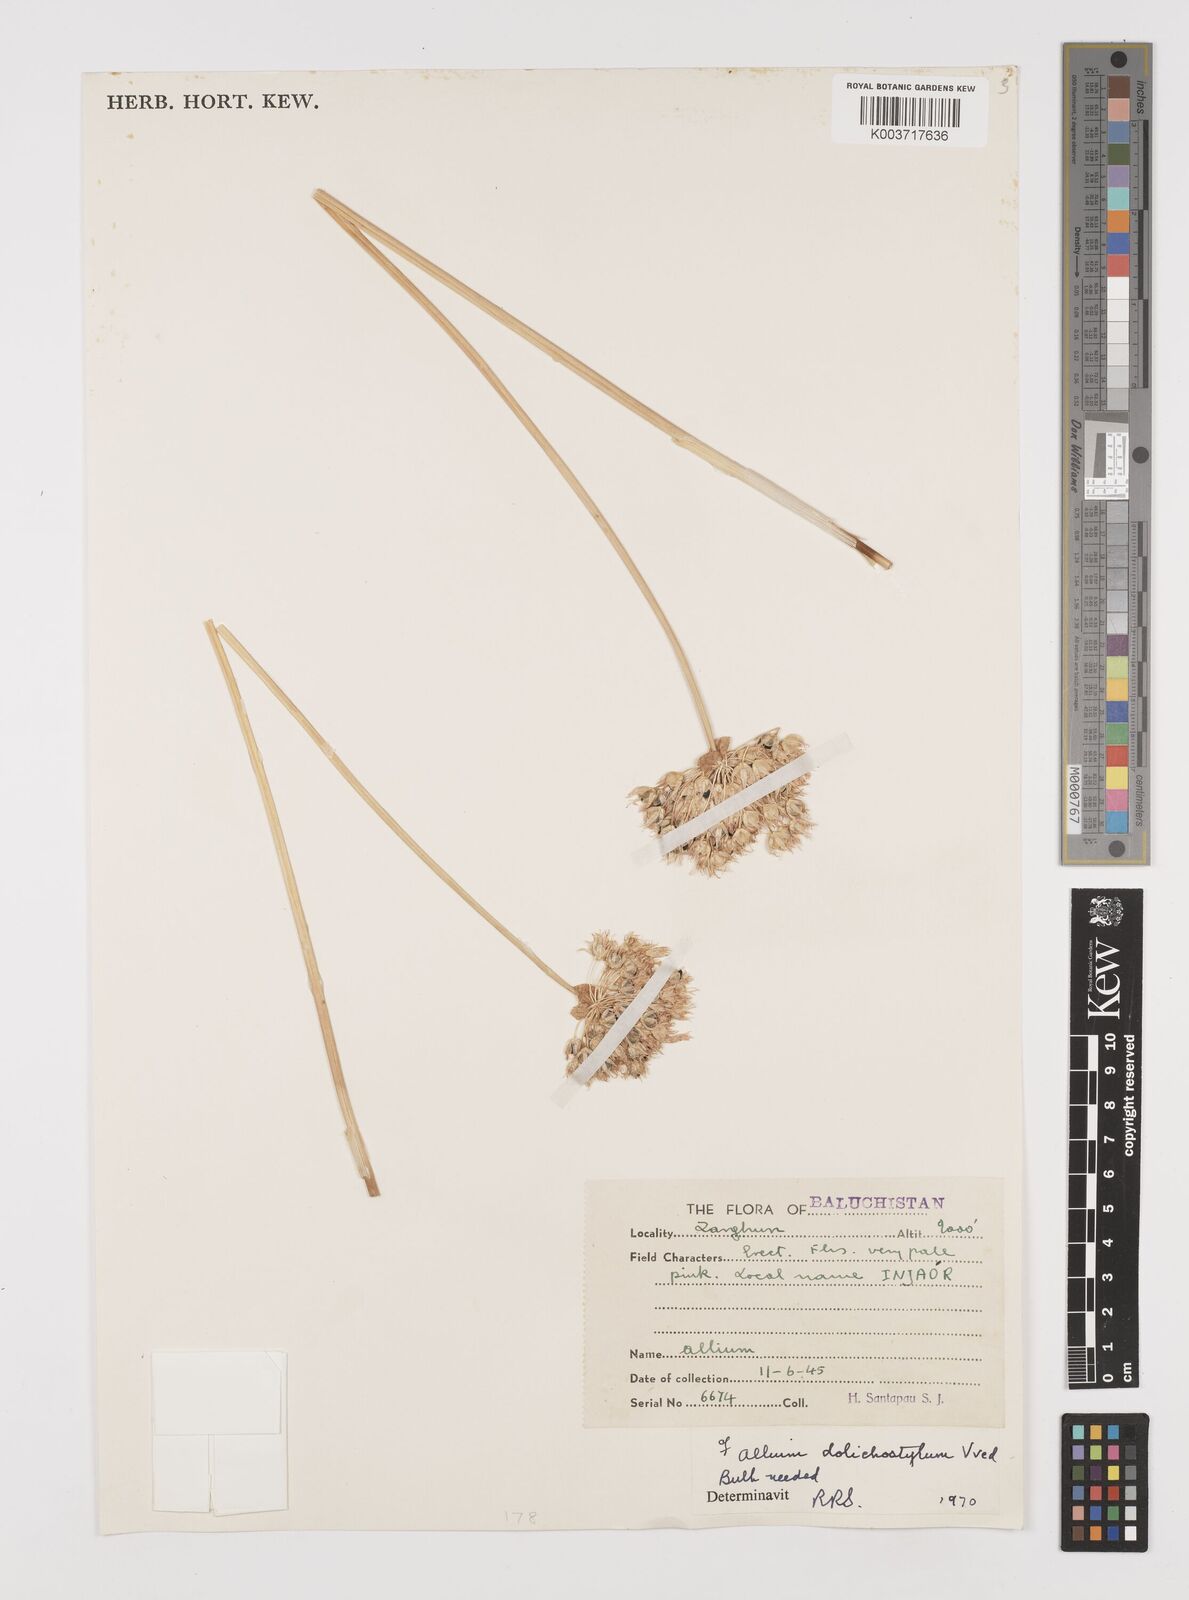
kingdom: Plantae
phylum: Tracheophyta
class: Liliopsida
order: Asparagales
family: Amaryllidaceae
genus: Allium
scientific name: Allium dolichostylum
